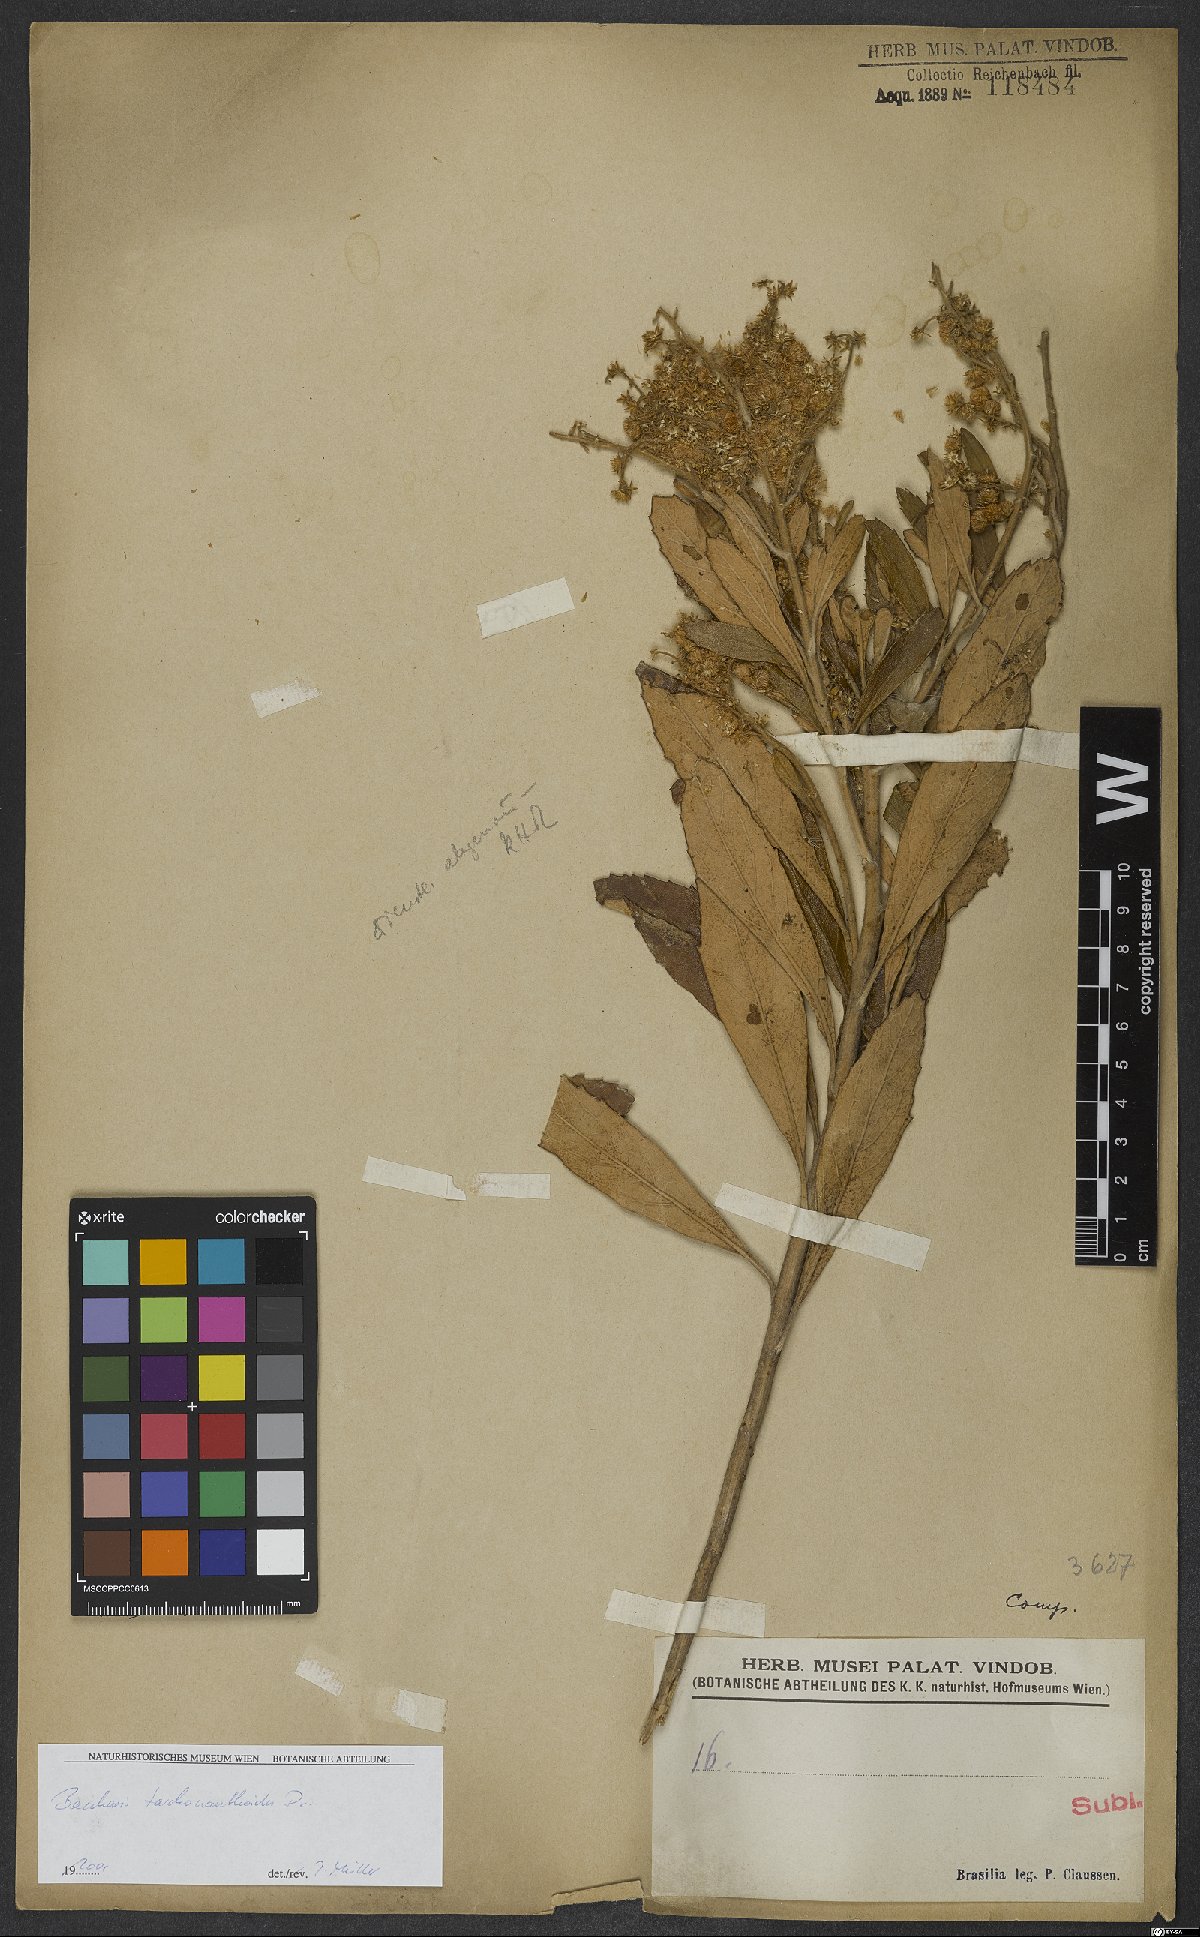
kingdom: Plantae
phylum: Tracheophyta
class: Magnoliopsida
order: Asterales
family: Asteraceae
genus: Baccharis
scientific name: Baccharis tarchonanthoides
